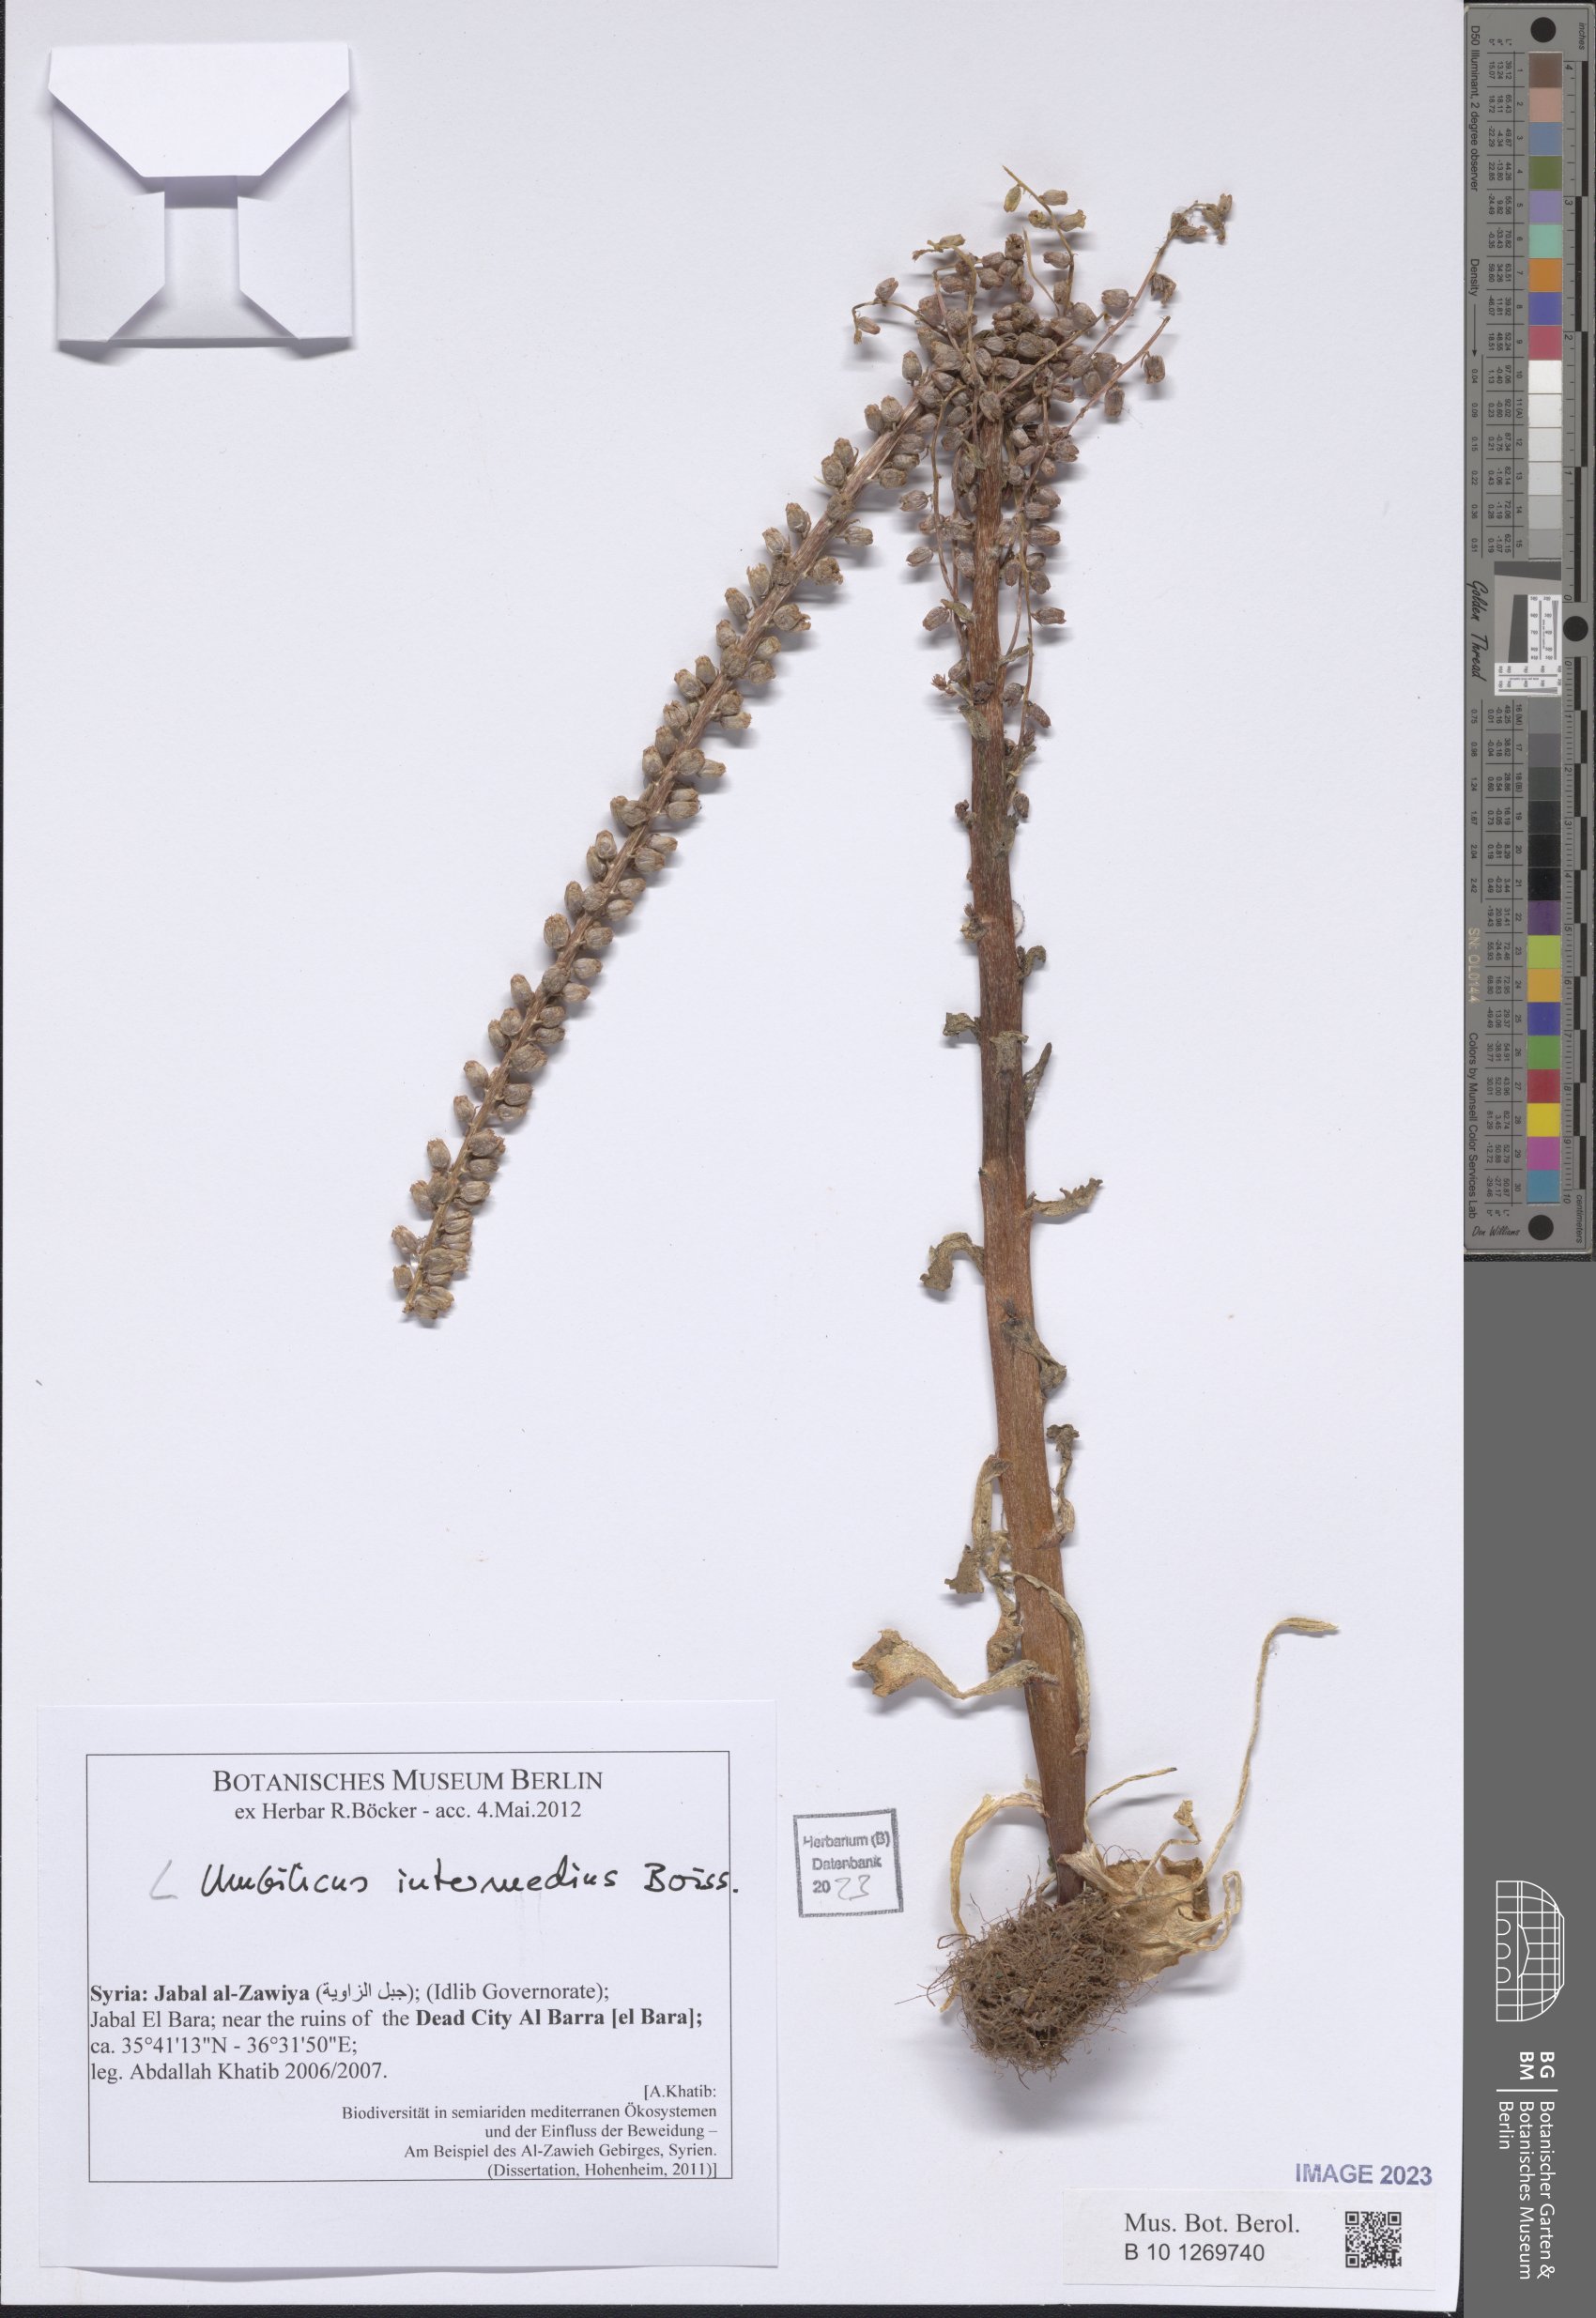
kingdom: Plantae
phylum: Tracheophyta
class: Magnoliopsida
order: Saxifragales
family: Crassulaceae
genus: Umbilicus
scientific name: Umbilicus horizontalis
